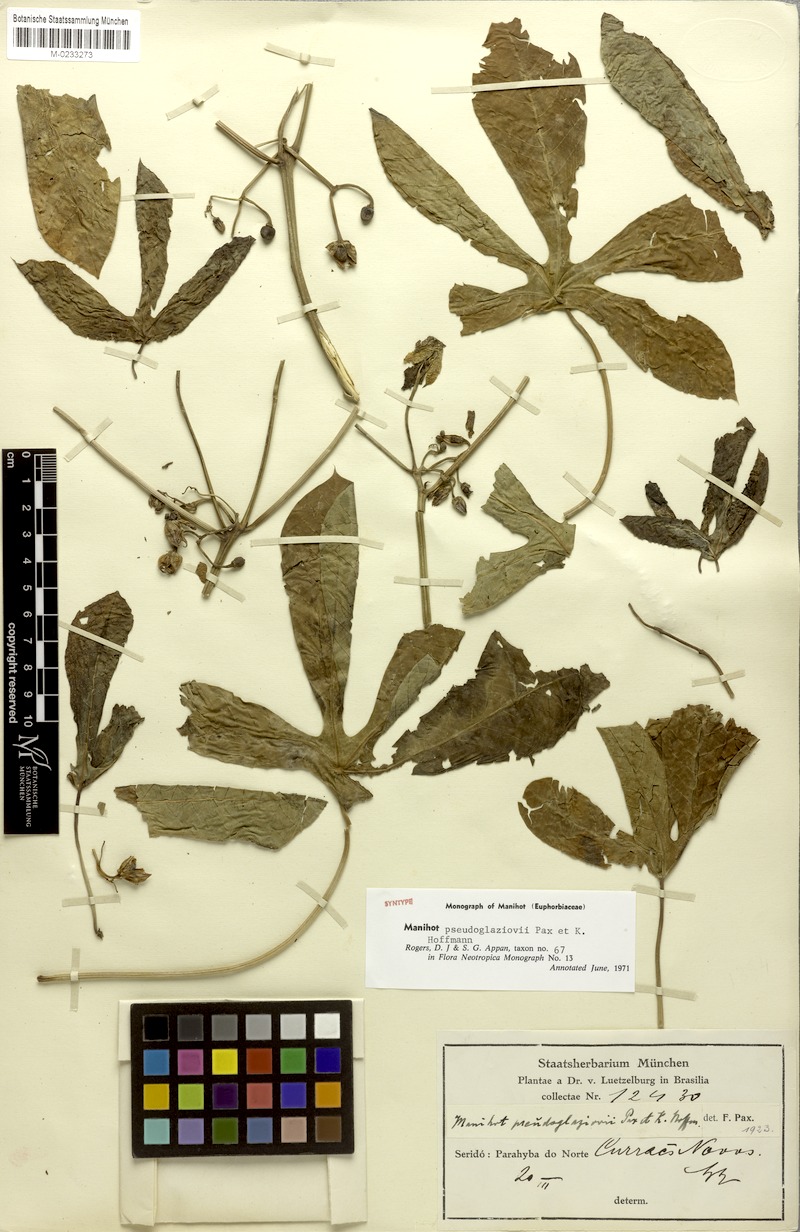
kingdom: Plantae
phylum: Tracheophyta
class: Magnoliopsida
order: Malpighiales
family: Euphorbiaceae
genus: Manihot
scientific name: Manihot carthaginensis
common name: Ceara rubbertree
